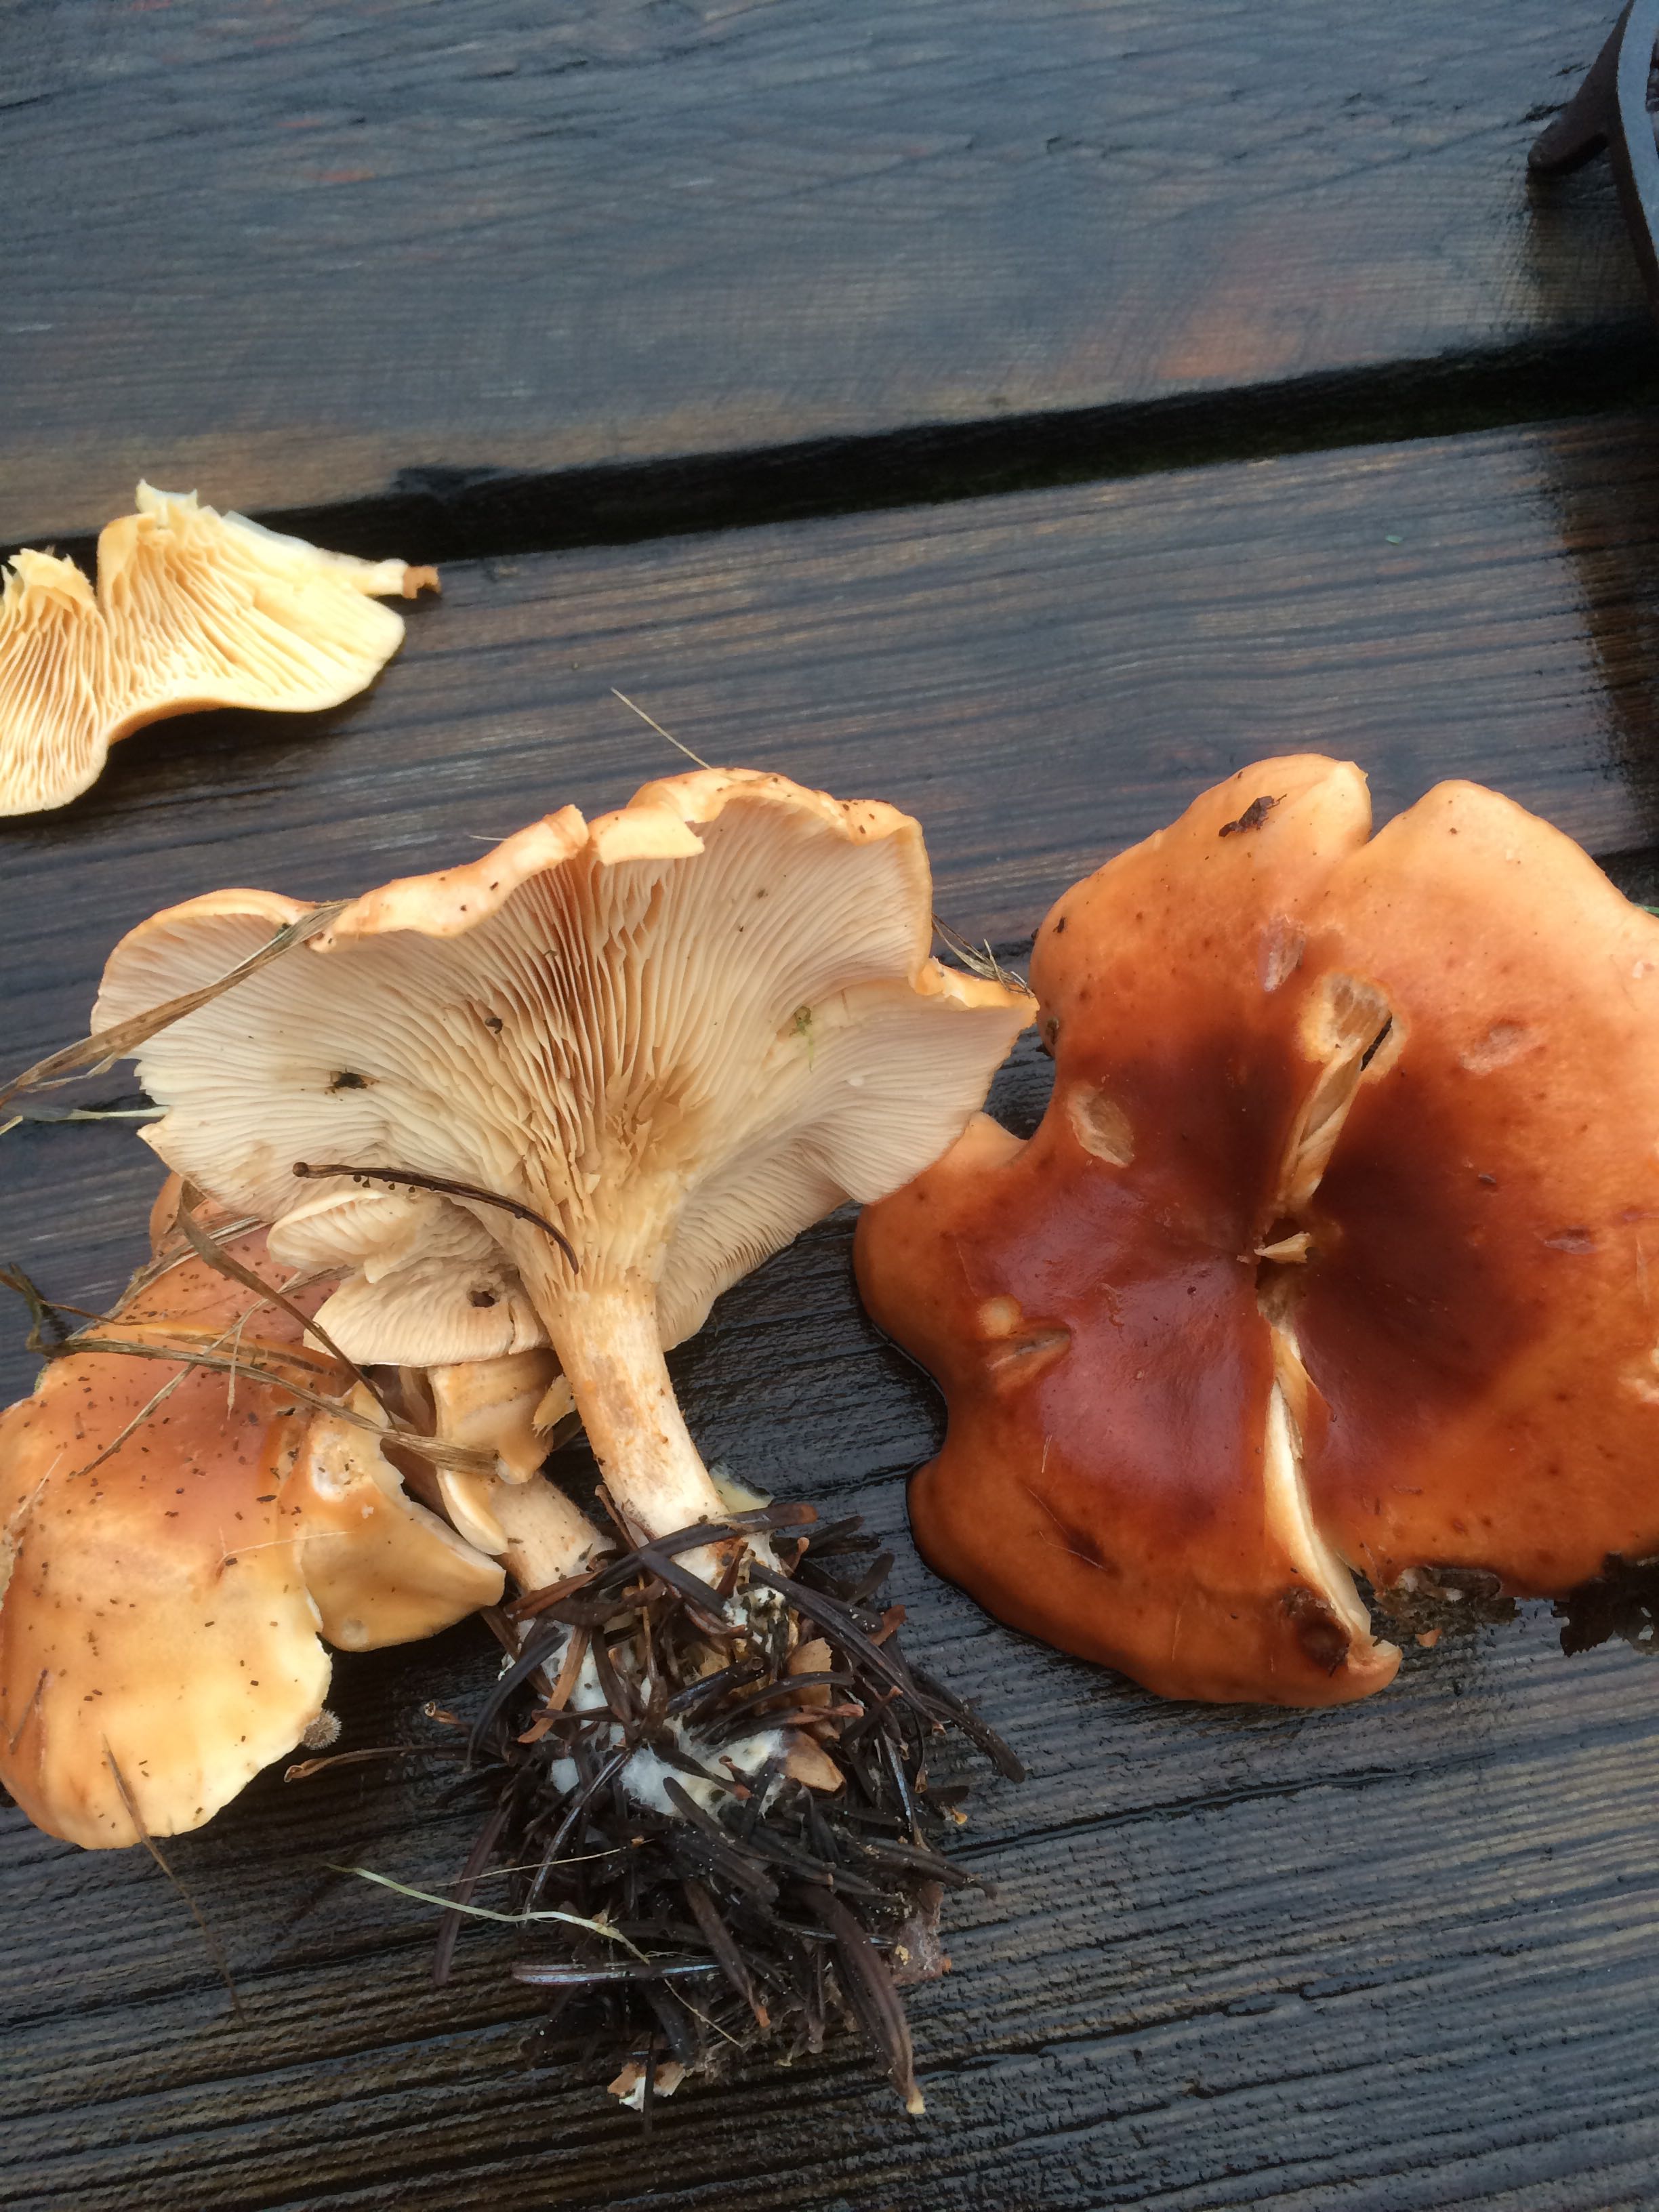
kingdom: Fungi
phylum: Basidiomycota
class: Agaricomycetes
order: Agaricales
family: Tricholomataceae
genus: Paralepista
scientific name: Paralepista flaccida
